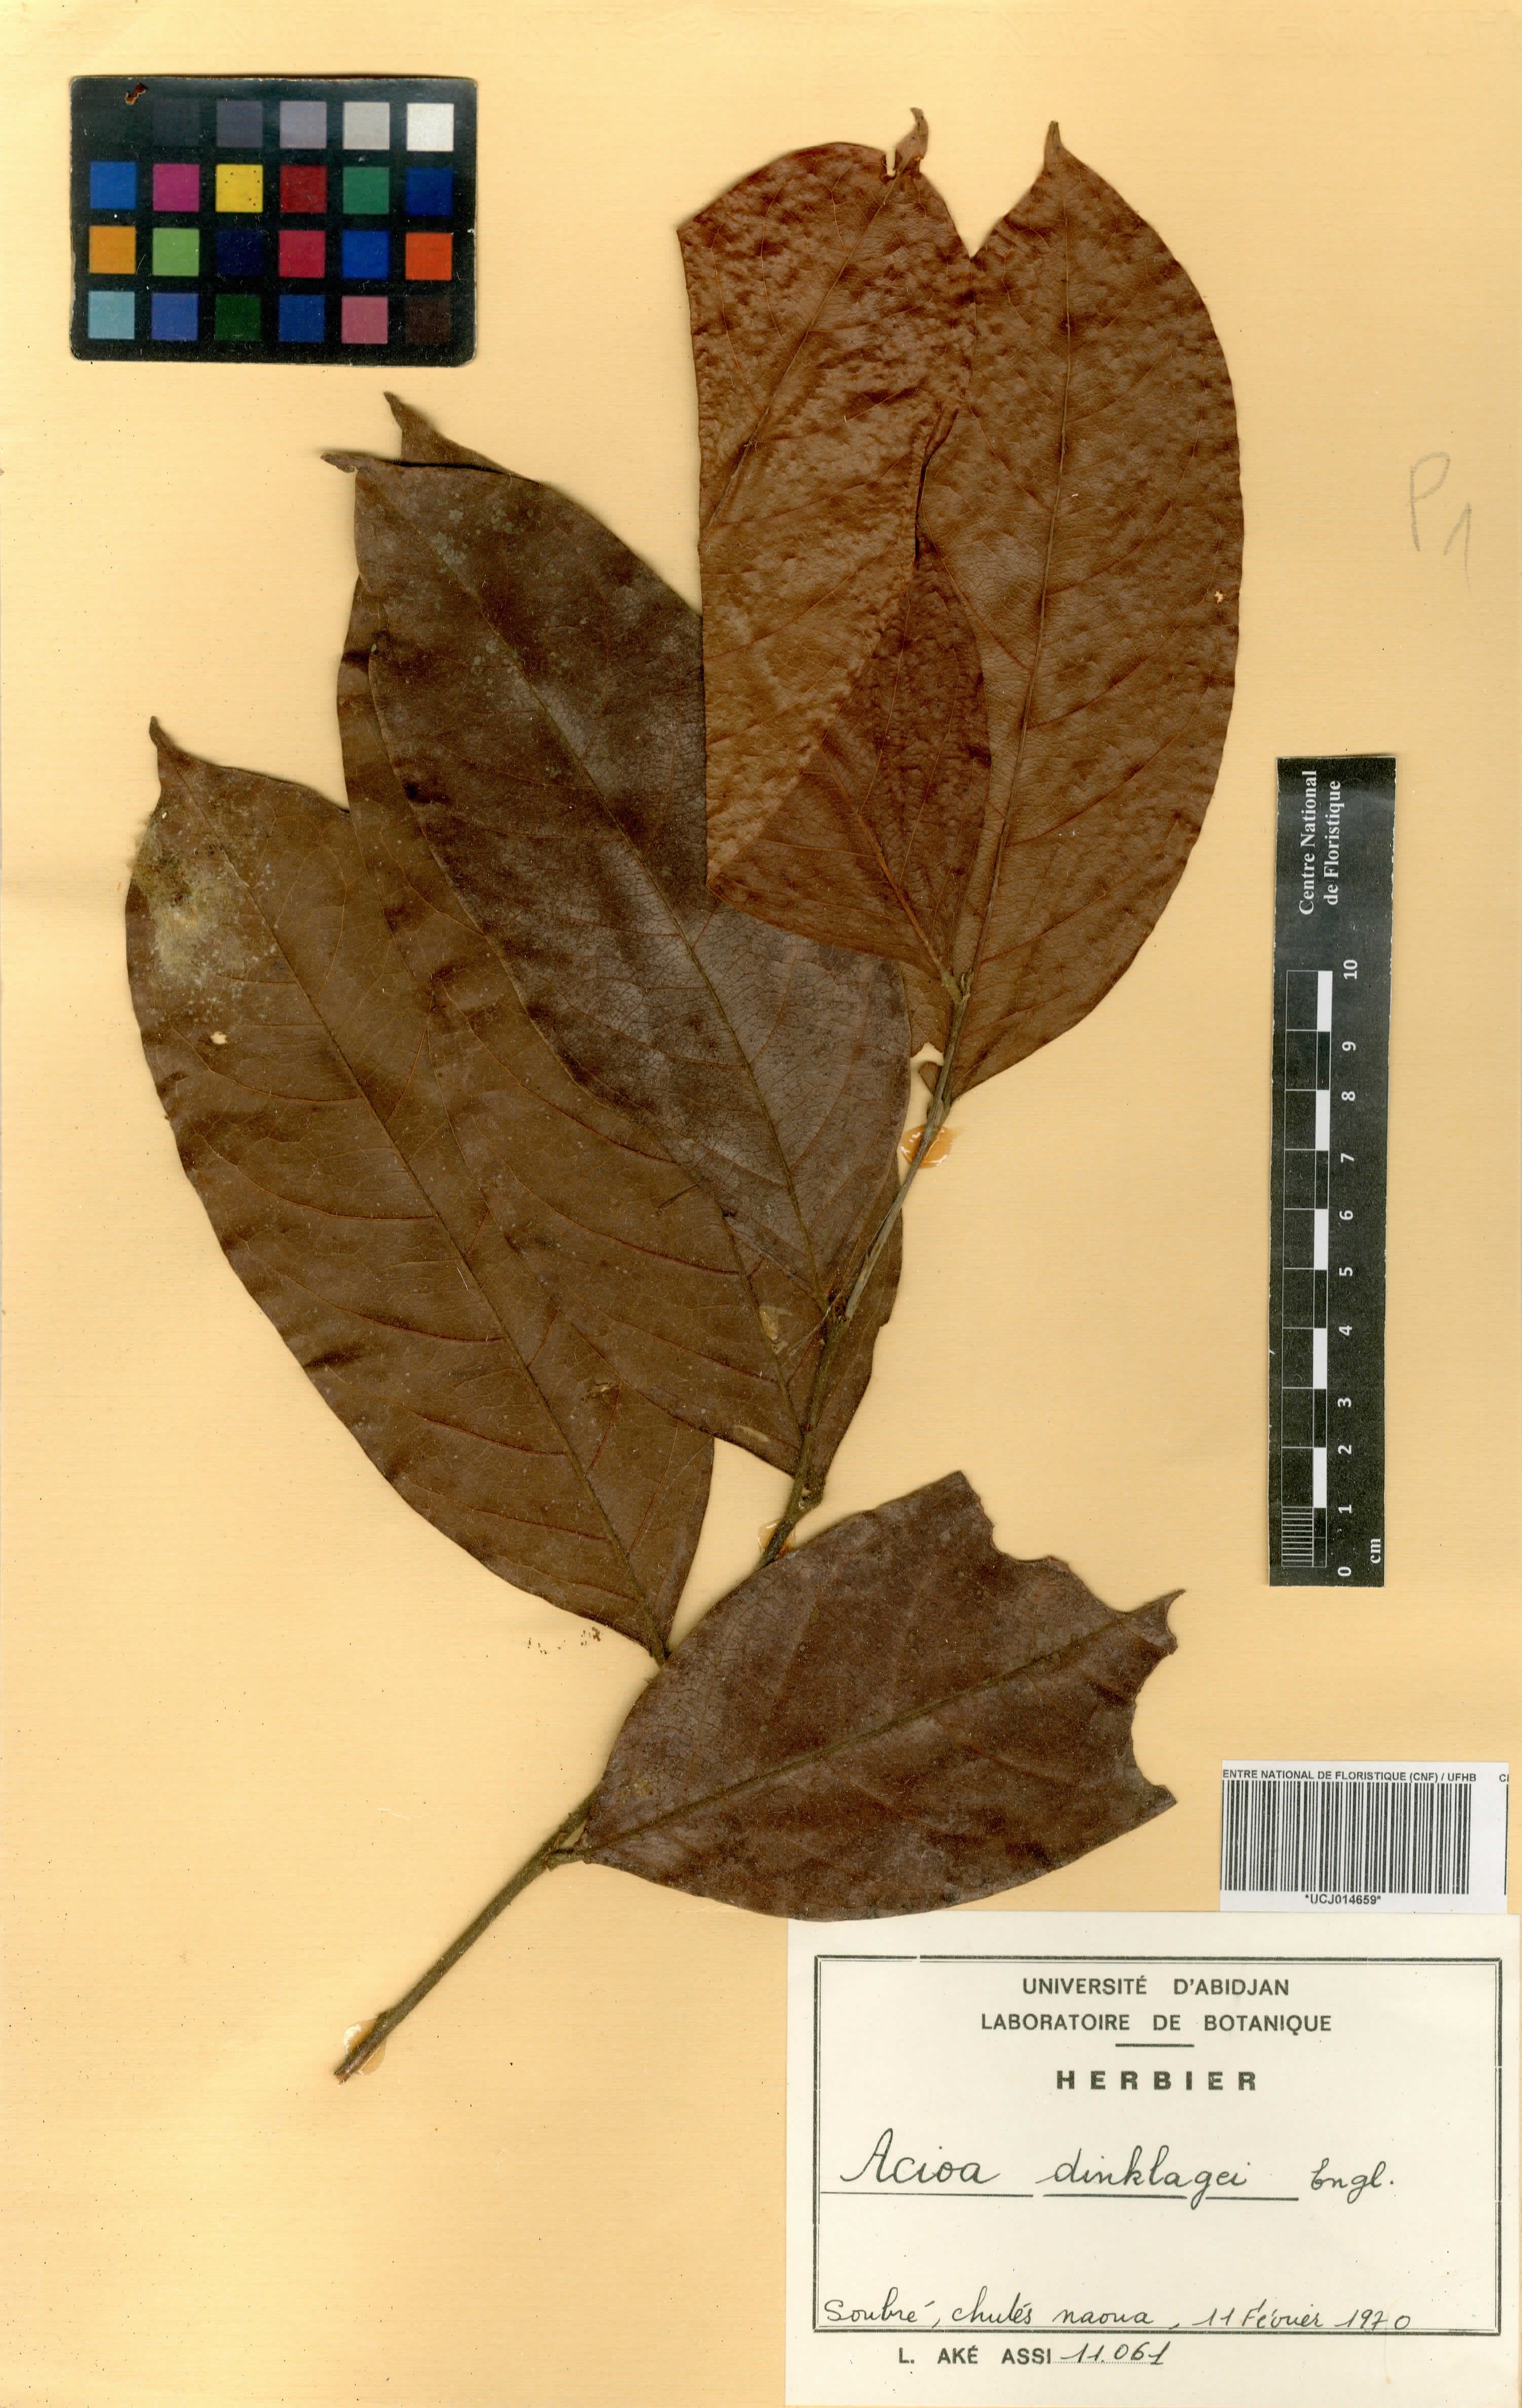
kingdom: Plantae
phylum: Tracheophyta
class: Magnoliopsida
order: Malpighiales
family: Chrysobalanaceae
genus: Dactyladenia
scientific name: Dactyladenia dinklagei
